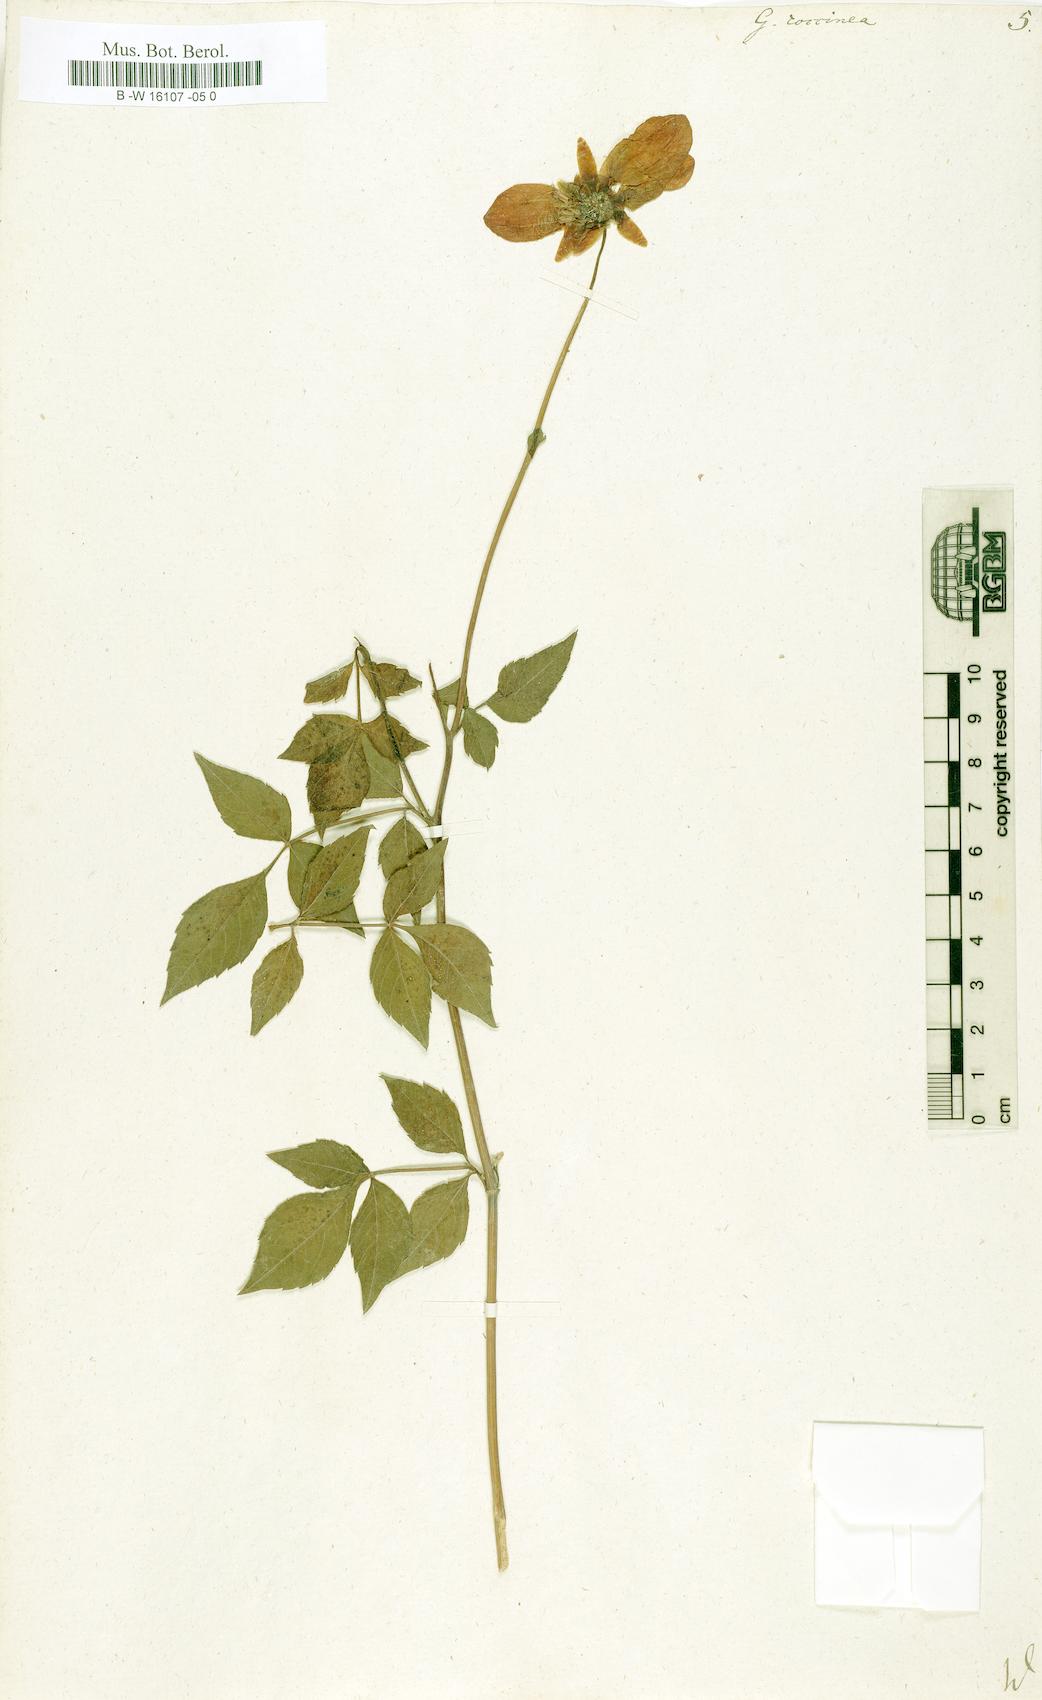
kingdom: Plantae
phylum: Tracheophyta
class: Magnoliopsida
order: Asterales
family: Asteraceae
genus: Dahlia
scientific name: Dahlia Georgina coccinea
